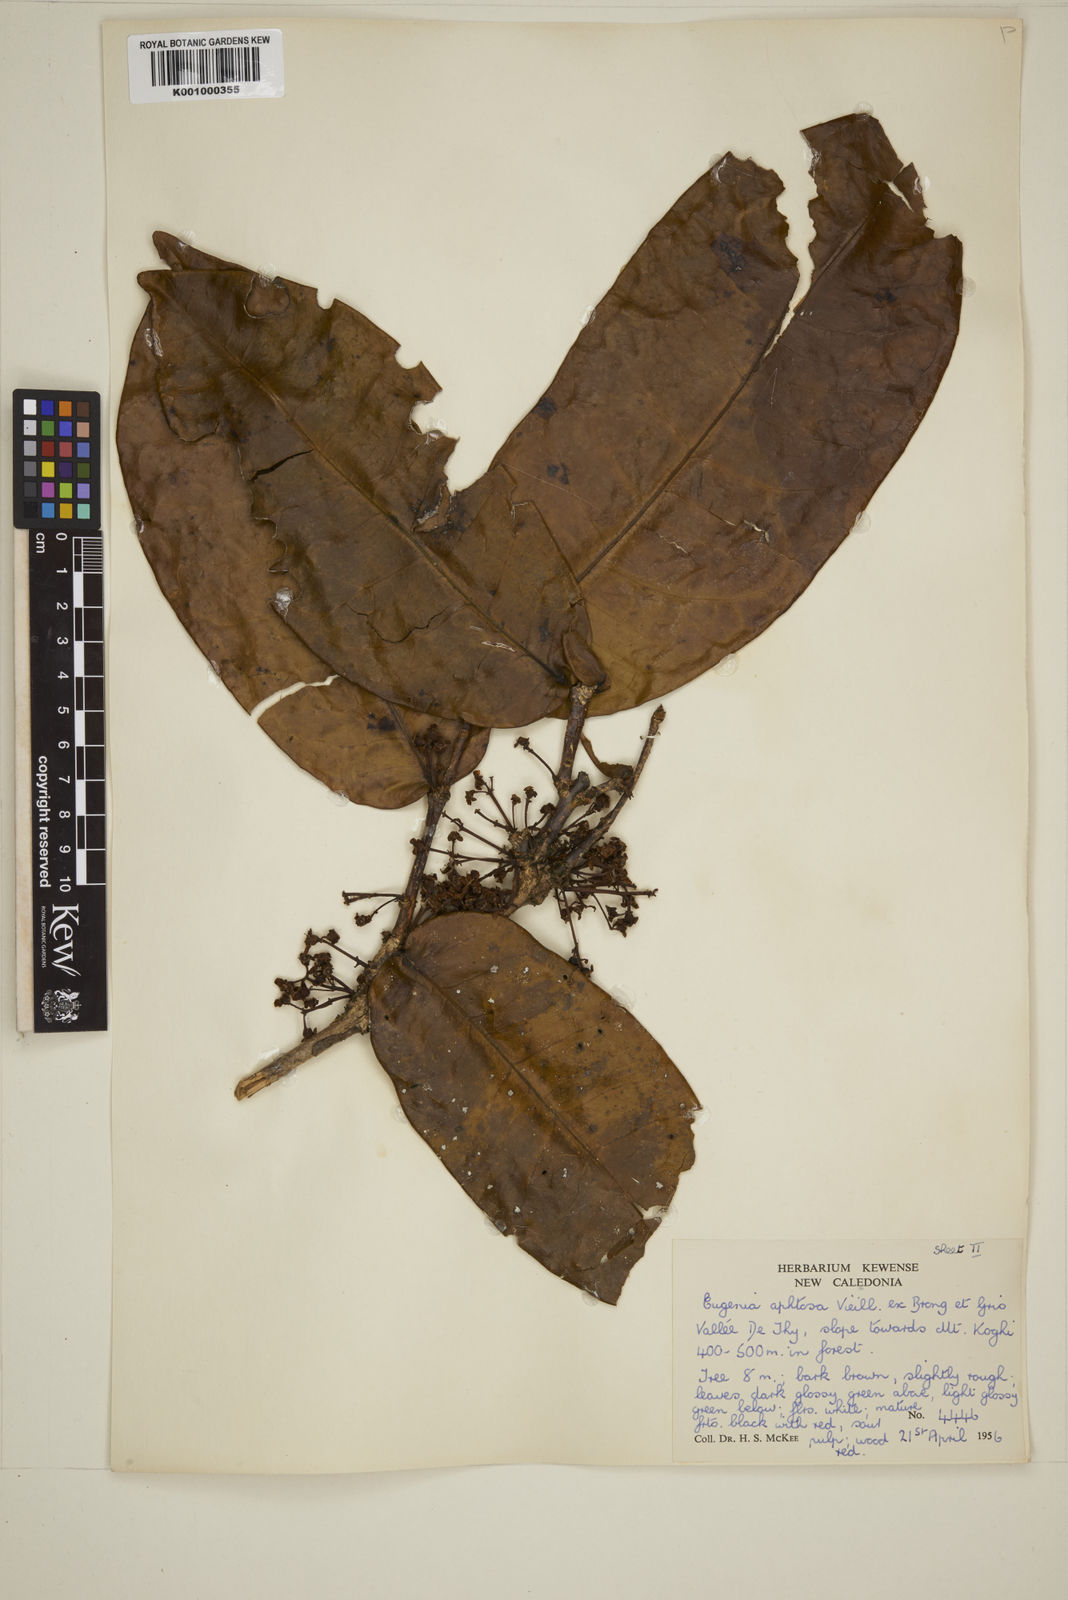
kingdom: Plantae
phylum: Tracheophyta
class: Magnoliopsida
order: Myrtales
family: Myrtaceae
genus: Gossia
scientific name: Gossia aphthosa
